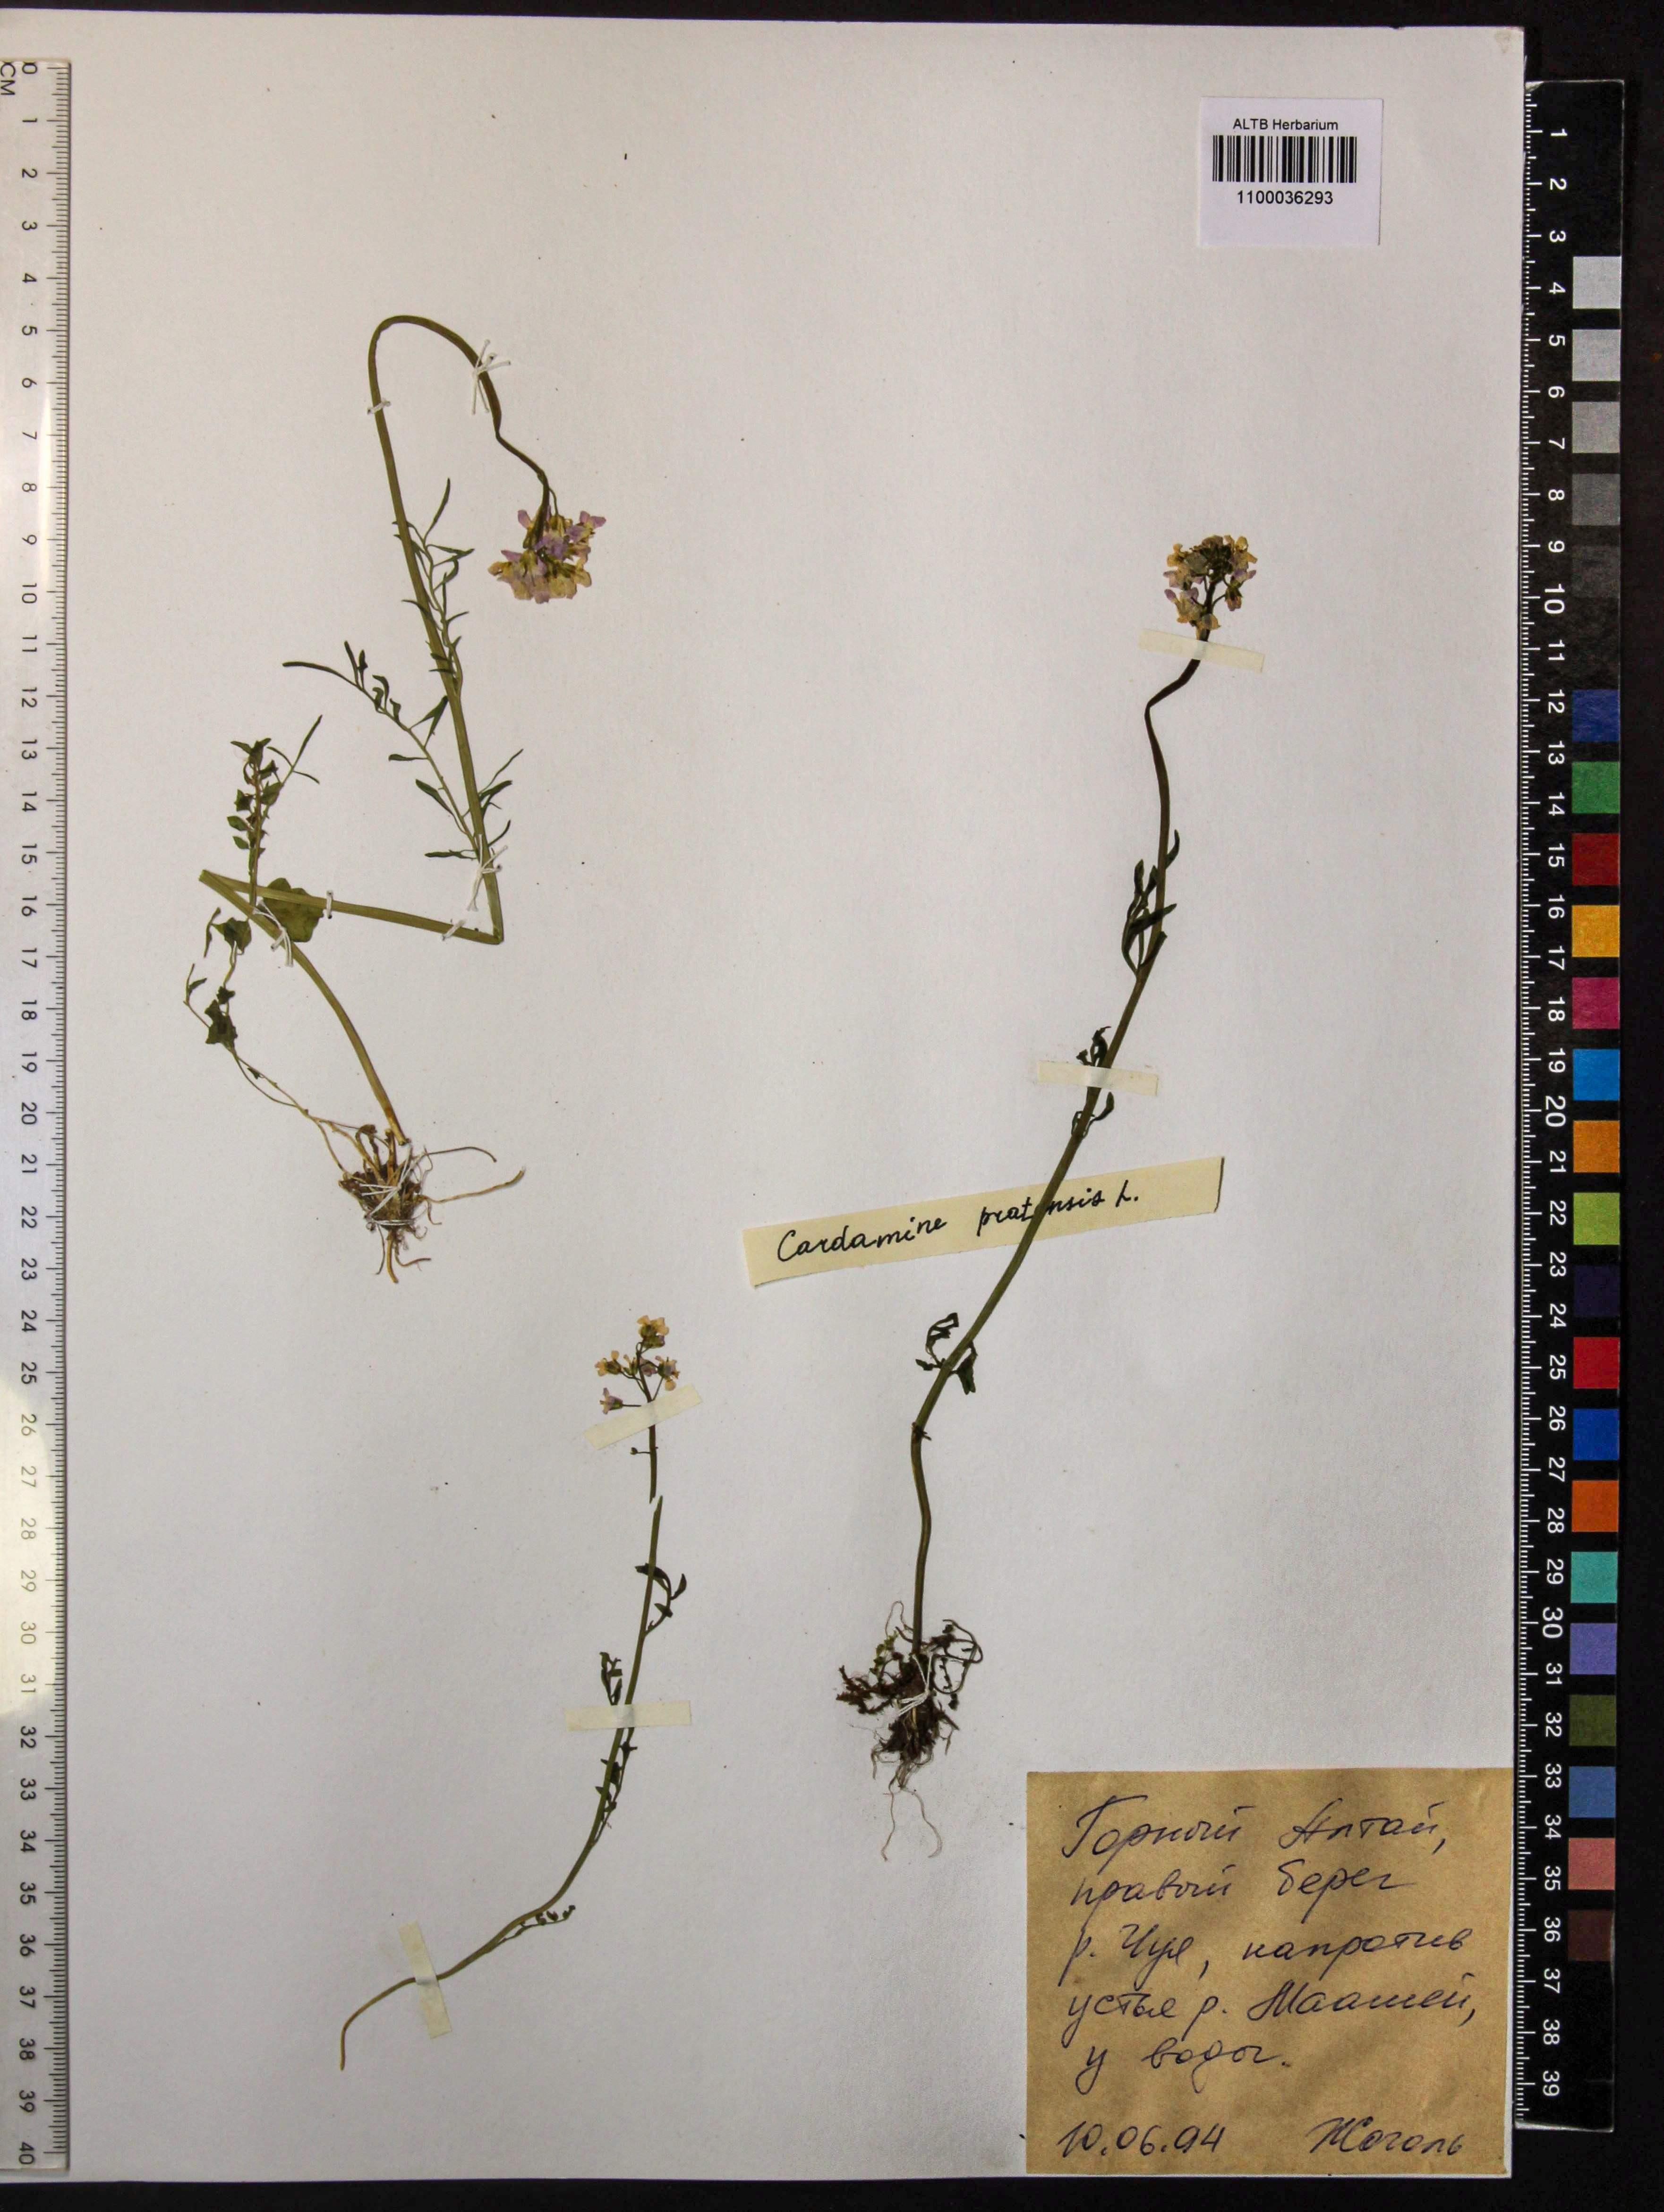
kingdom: Plantae
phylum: Tracheophyta
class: Magnoliopsida
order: Brassicales
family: Brassicaceae
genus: Cardamine
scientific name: Cardamine pratensis
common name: Cuckoo flower
